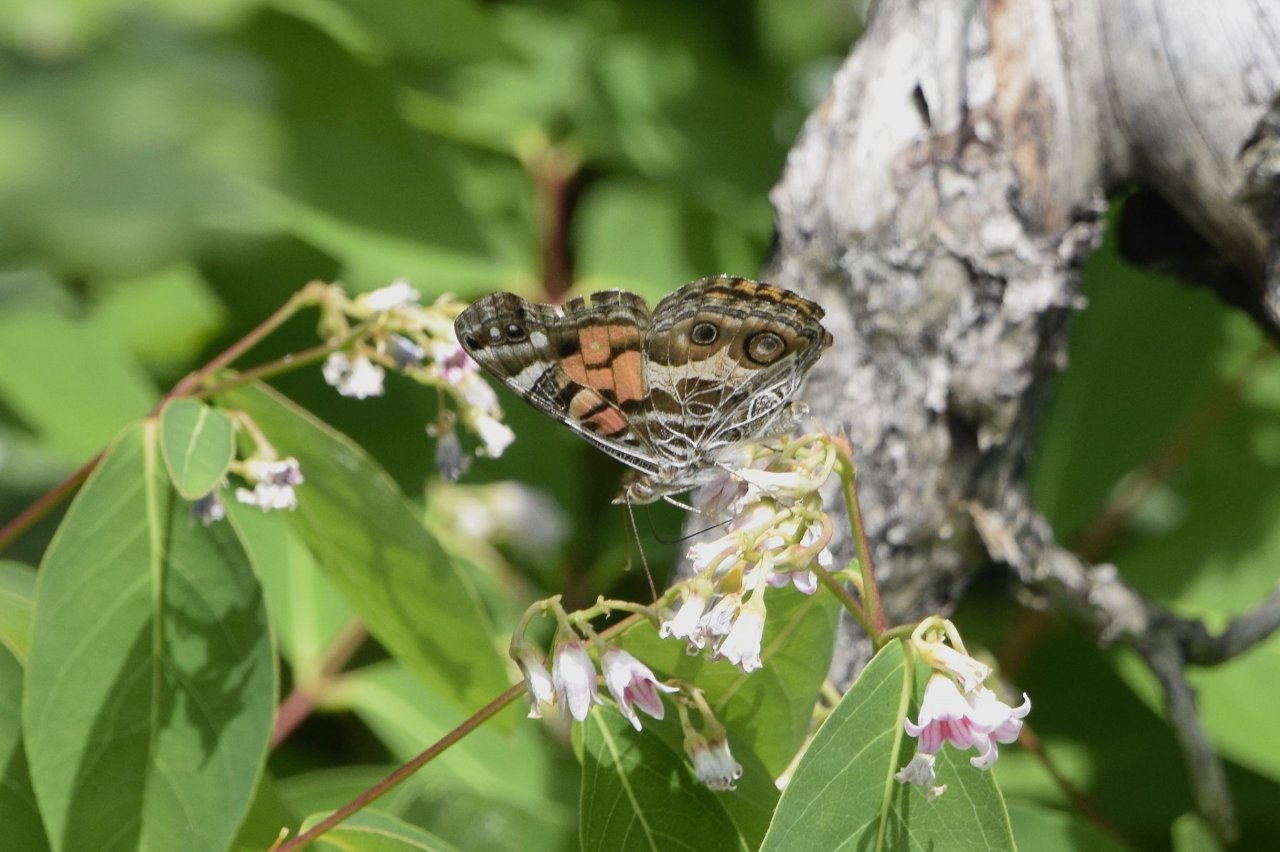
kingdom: Animalia
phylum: Arthropoda
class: Insecta
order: Lepidoptera
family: Nymphalidae
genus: Vanessa
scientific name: Vanessa virginiensis
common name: American Lady
